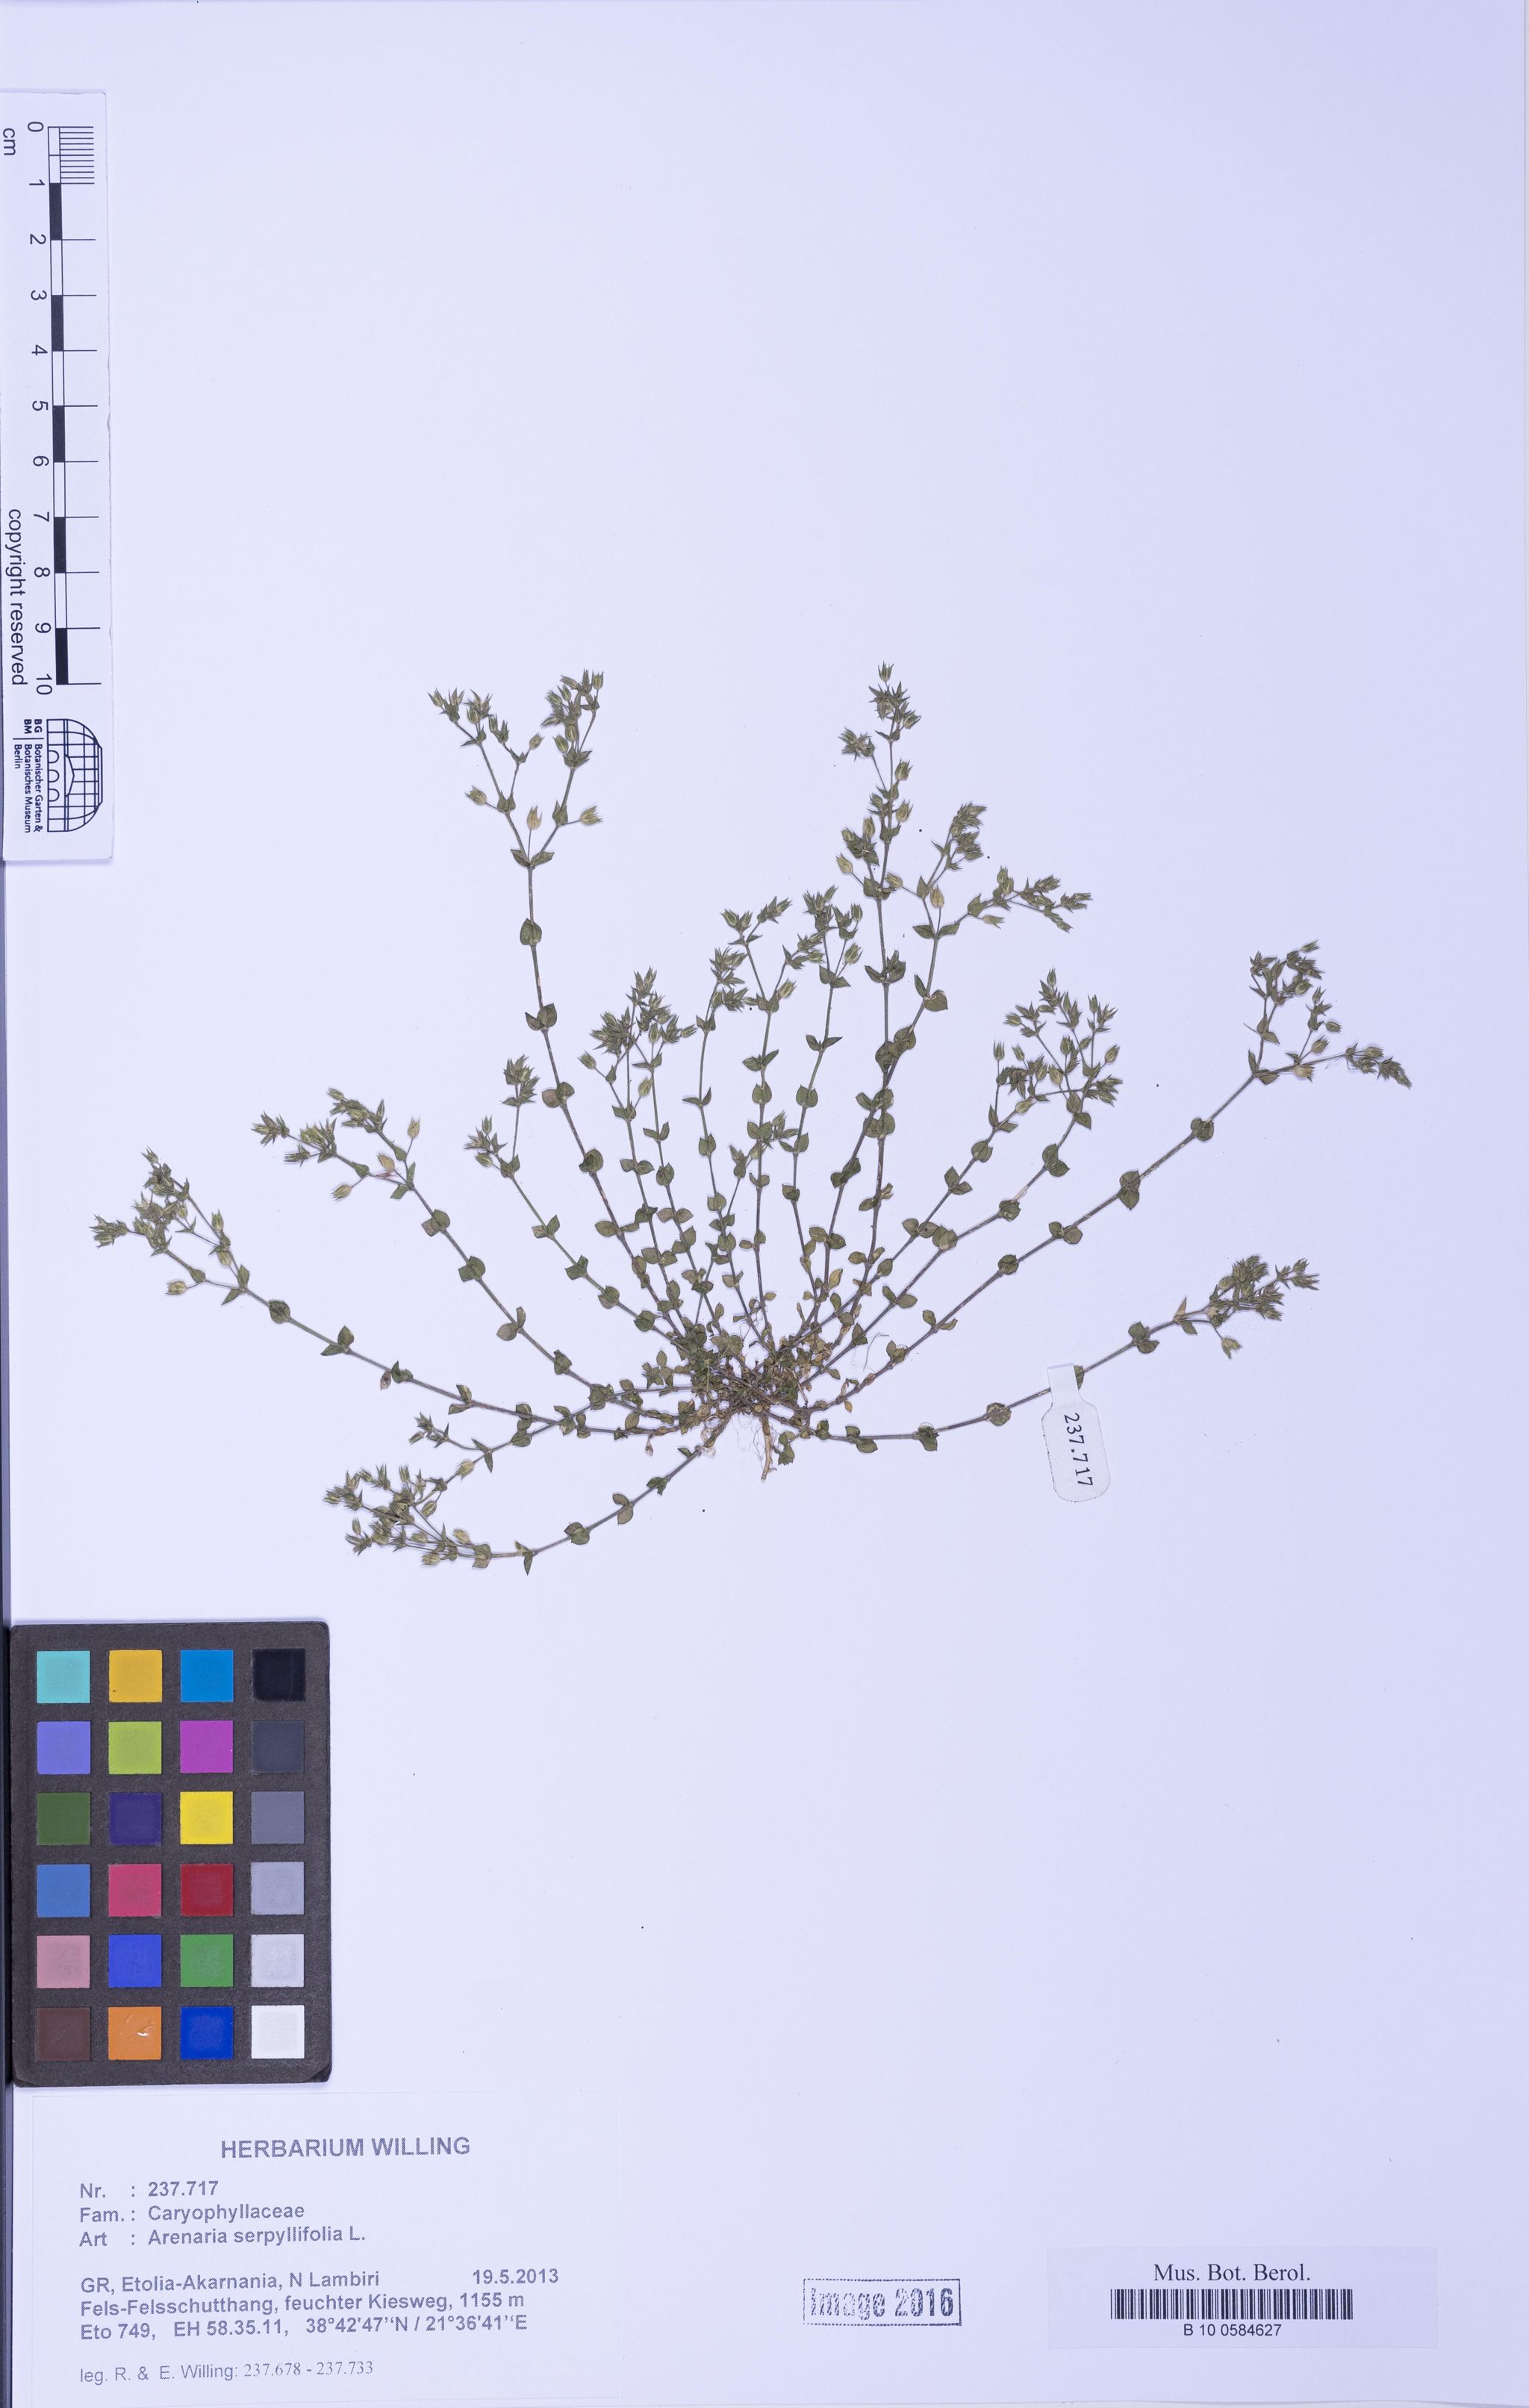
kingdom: Plantae
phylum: Tracheophyta
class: Magnoliopsida
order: Caryophyllales
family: Caryophyllaceae
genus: Arenaria
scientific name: Arenaria serpyllifolia
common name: Thyme-leaved sandwort
